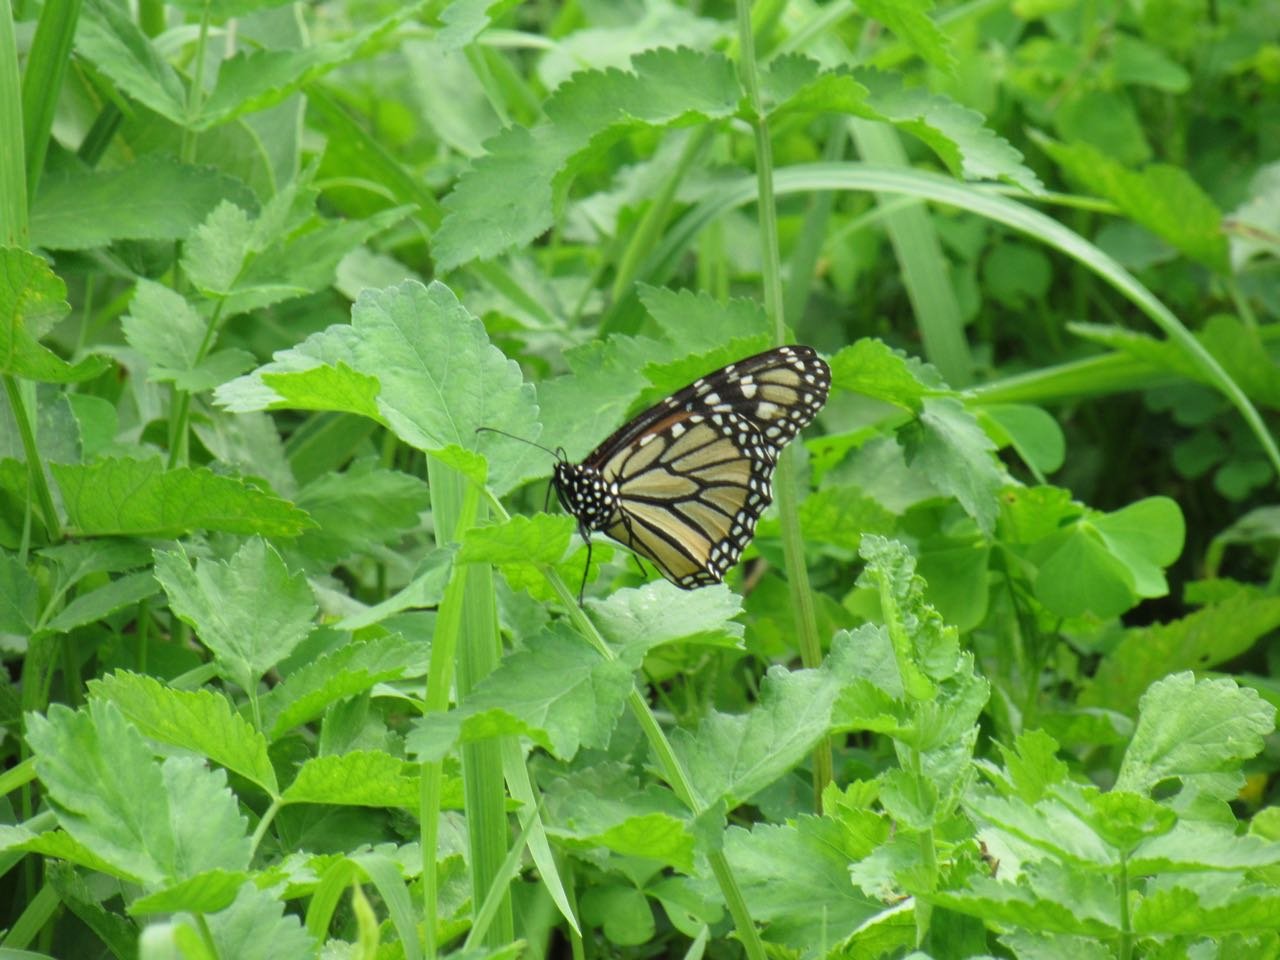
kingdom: Animalia
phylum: Arthropoda
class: Insecta
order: Lepidoptera
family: Nymphalidae
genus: Danaus
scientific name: Danaus plexippus
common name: Monarch
